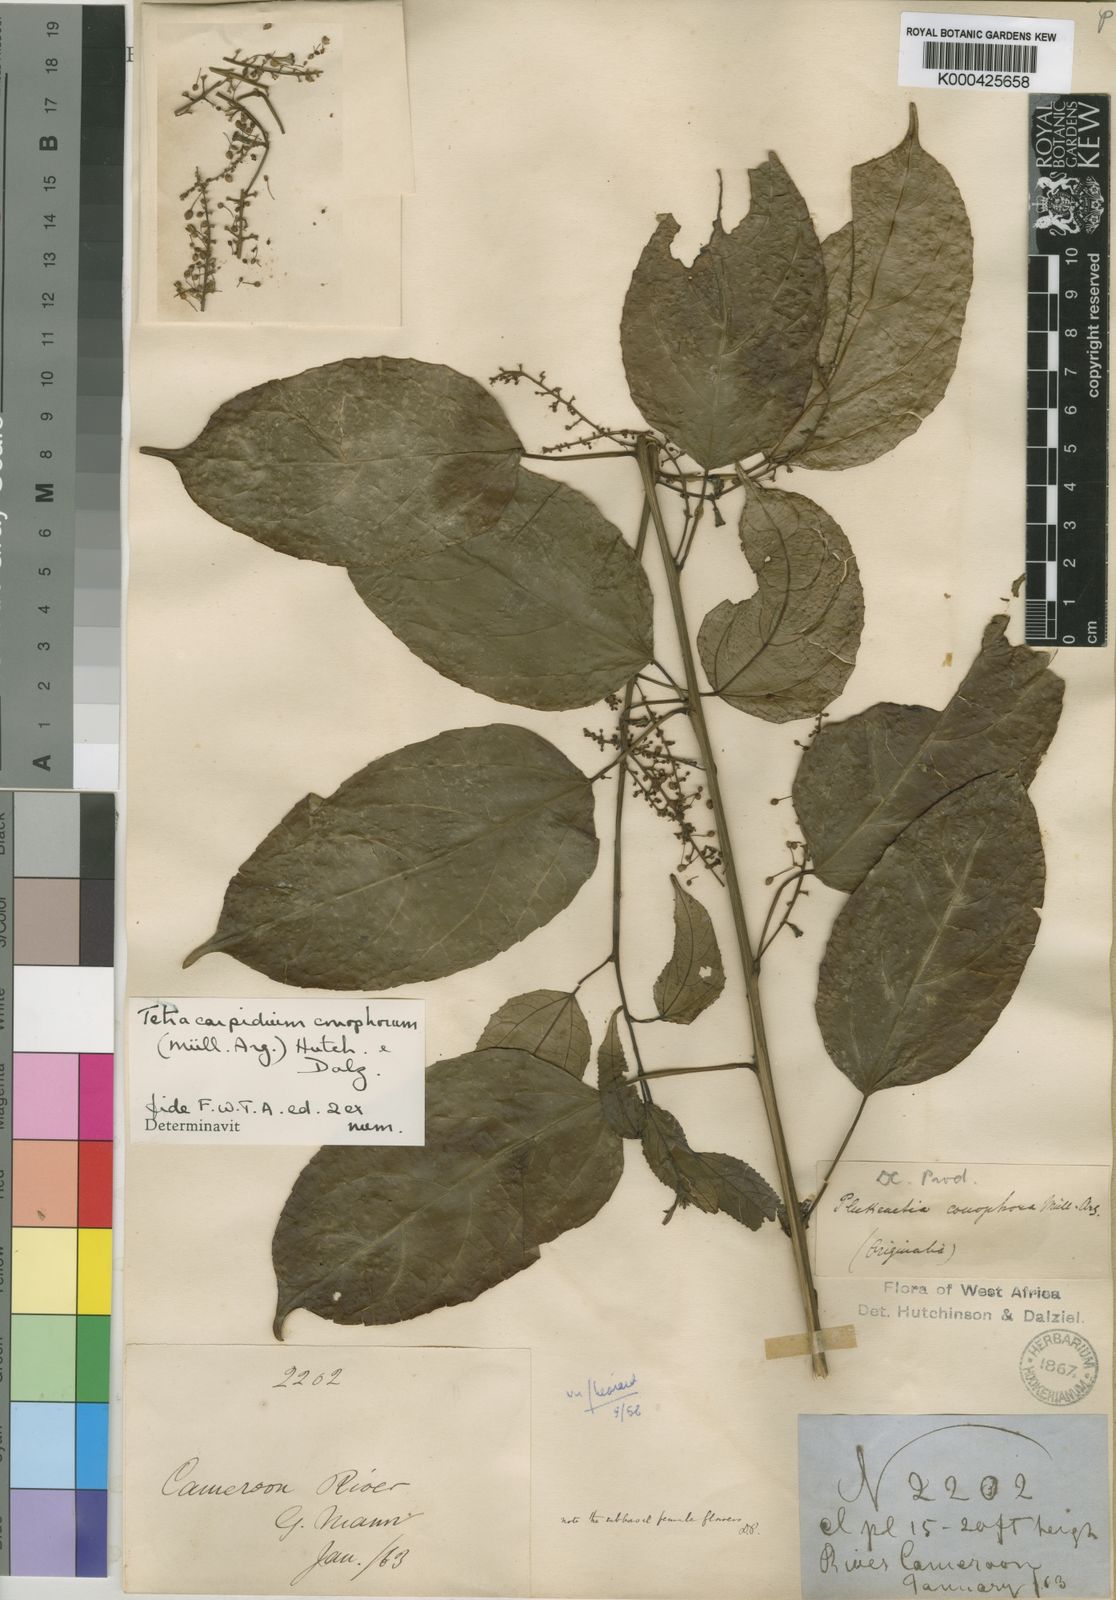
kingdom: Plantae
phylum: Tracheophyta
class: Magnoliopsida
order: Malpighiales
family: Euphorbiaceae
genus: Plukenetia
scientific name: Plukenetia
